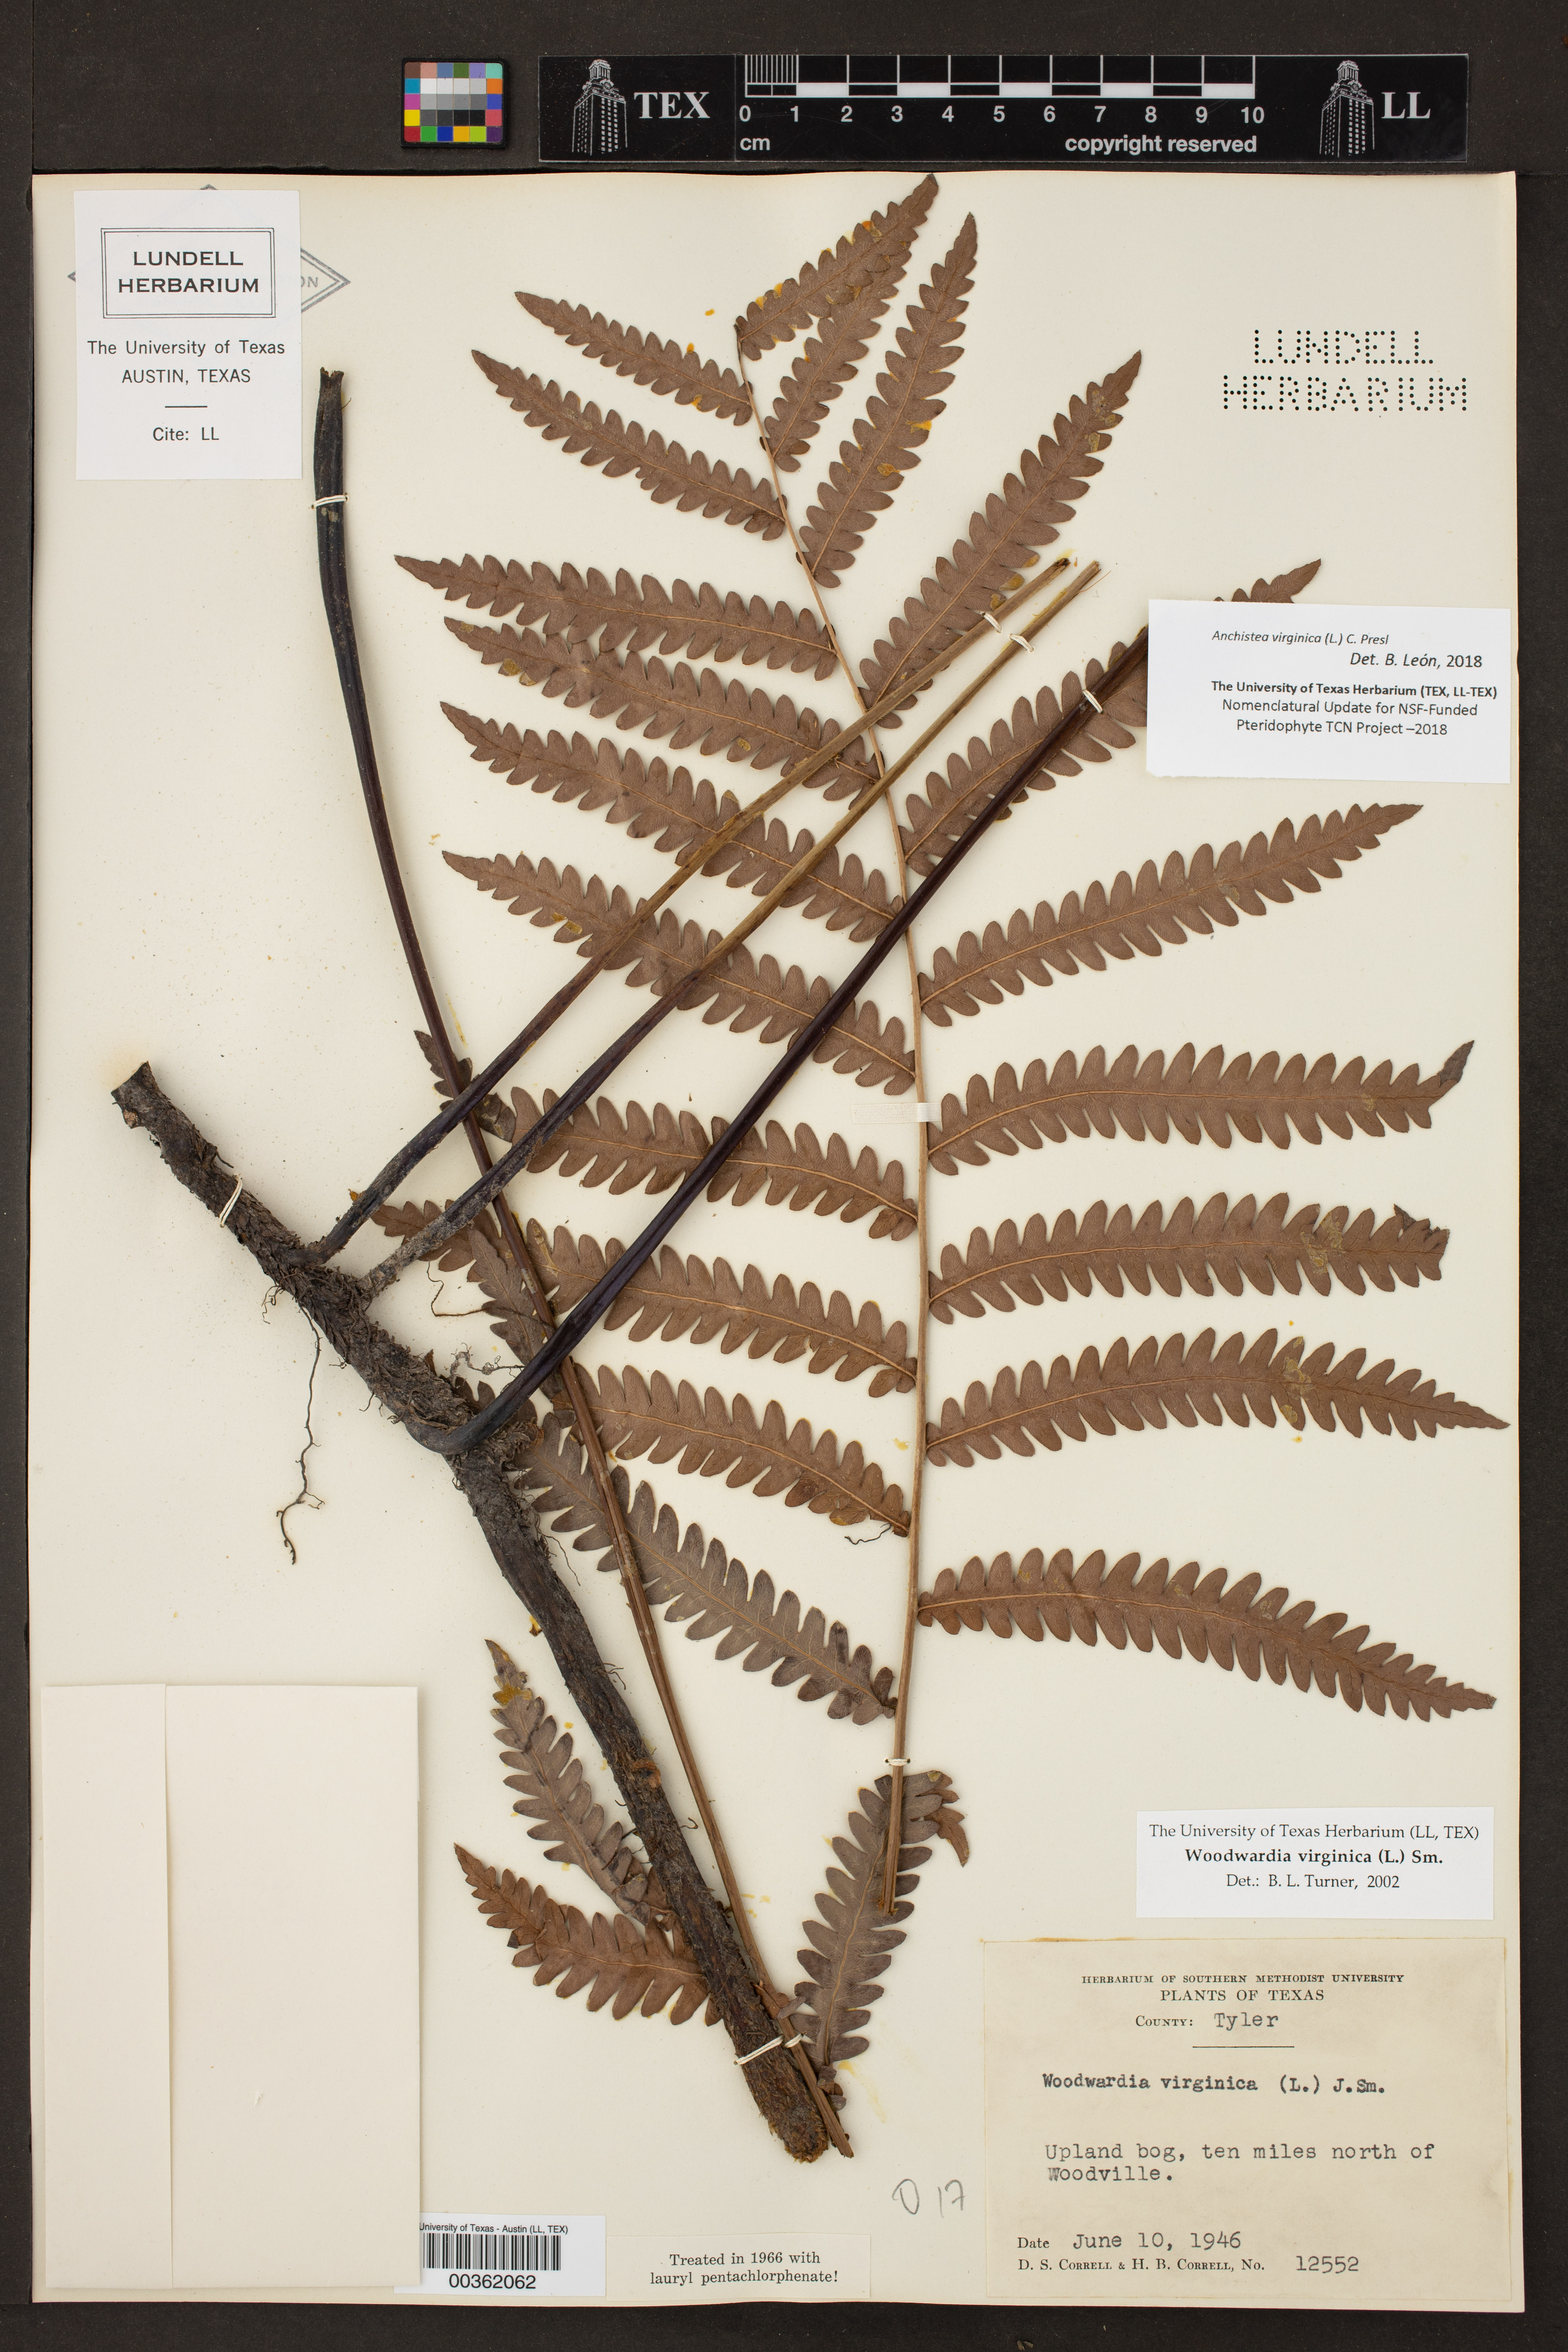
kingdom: Plantae
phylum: Tracheophyta
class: Polypodiopsida
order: Polypodiales
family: Blechnaceae
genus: Anchistea
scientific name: Anchistea virginica
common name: Virginia chain fern
